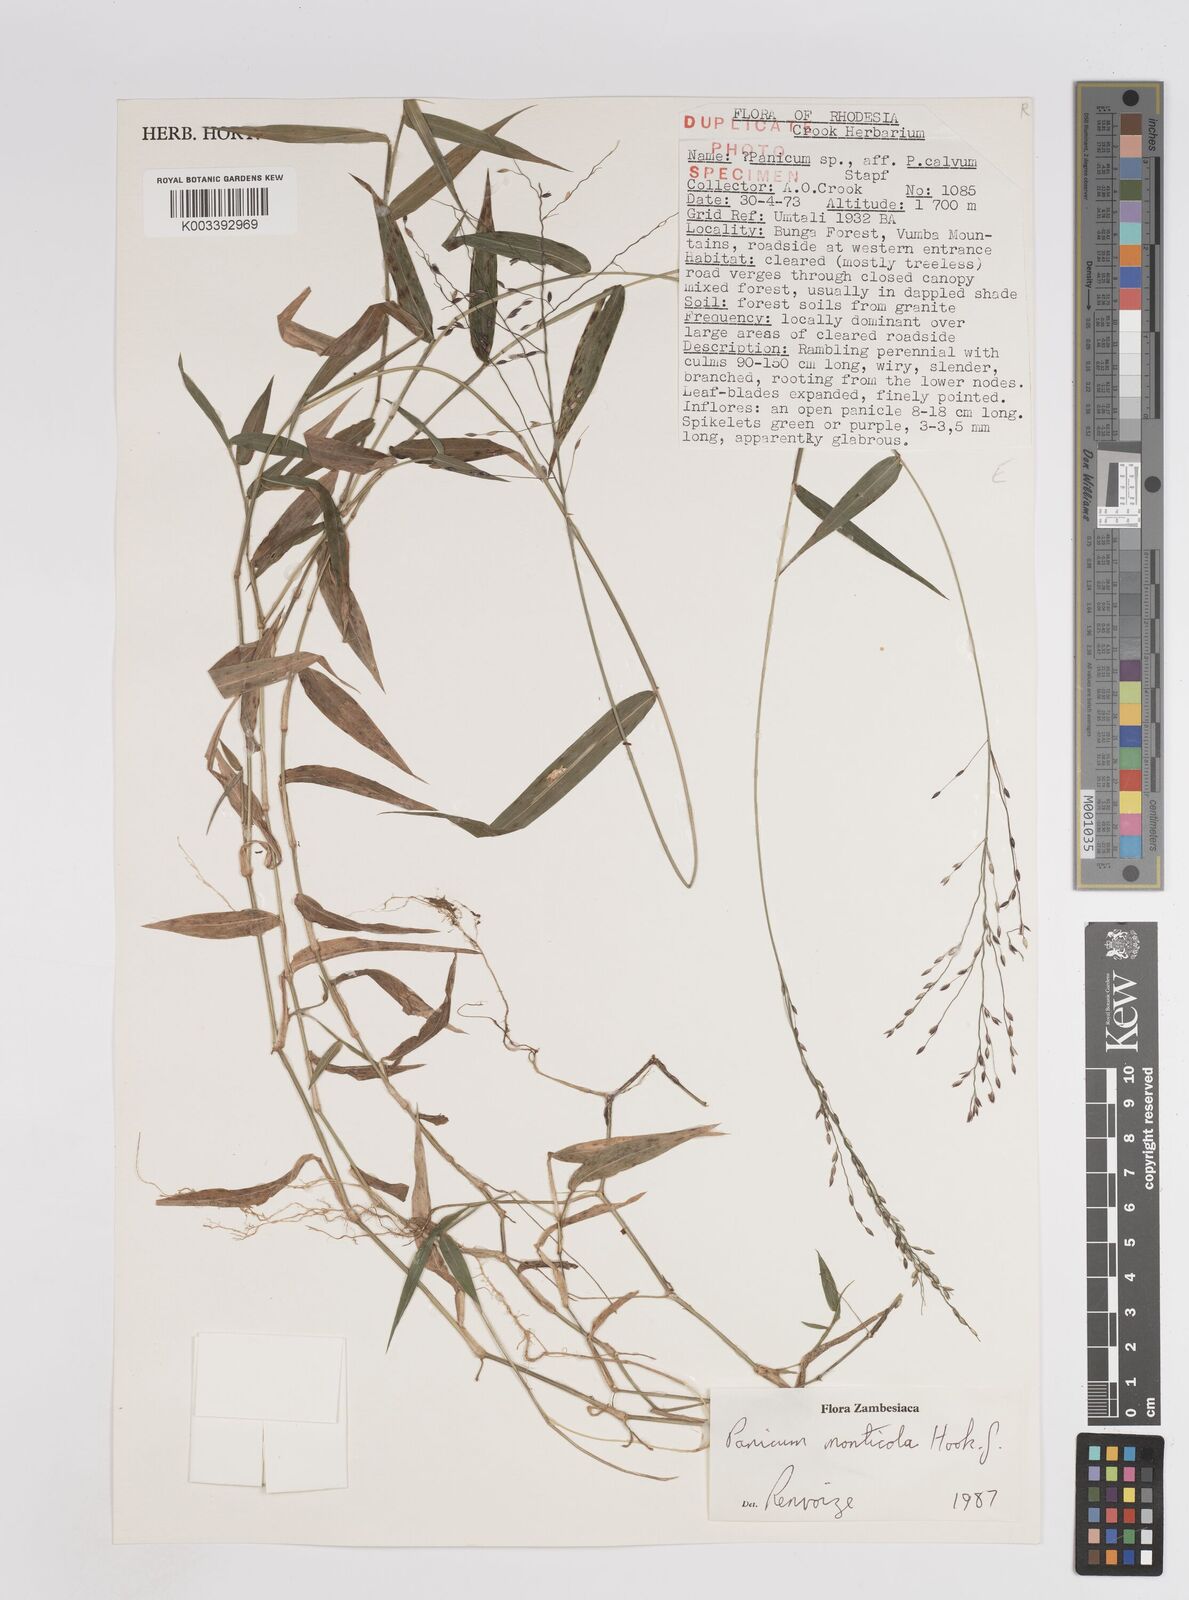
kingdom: Plantae
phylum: Tracheophyta
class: Liliopsida
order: Poales
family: Poaceae
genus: Panicum
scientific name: Panicum monticola
